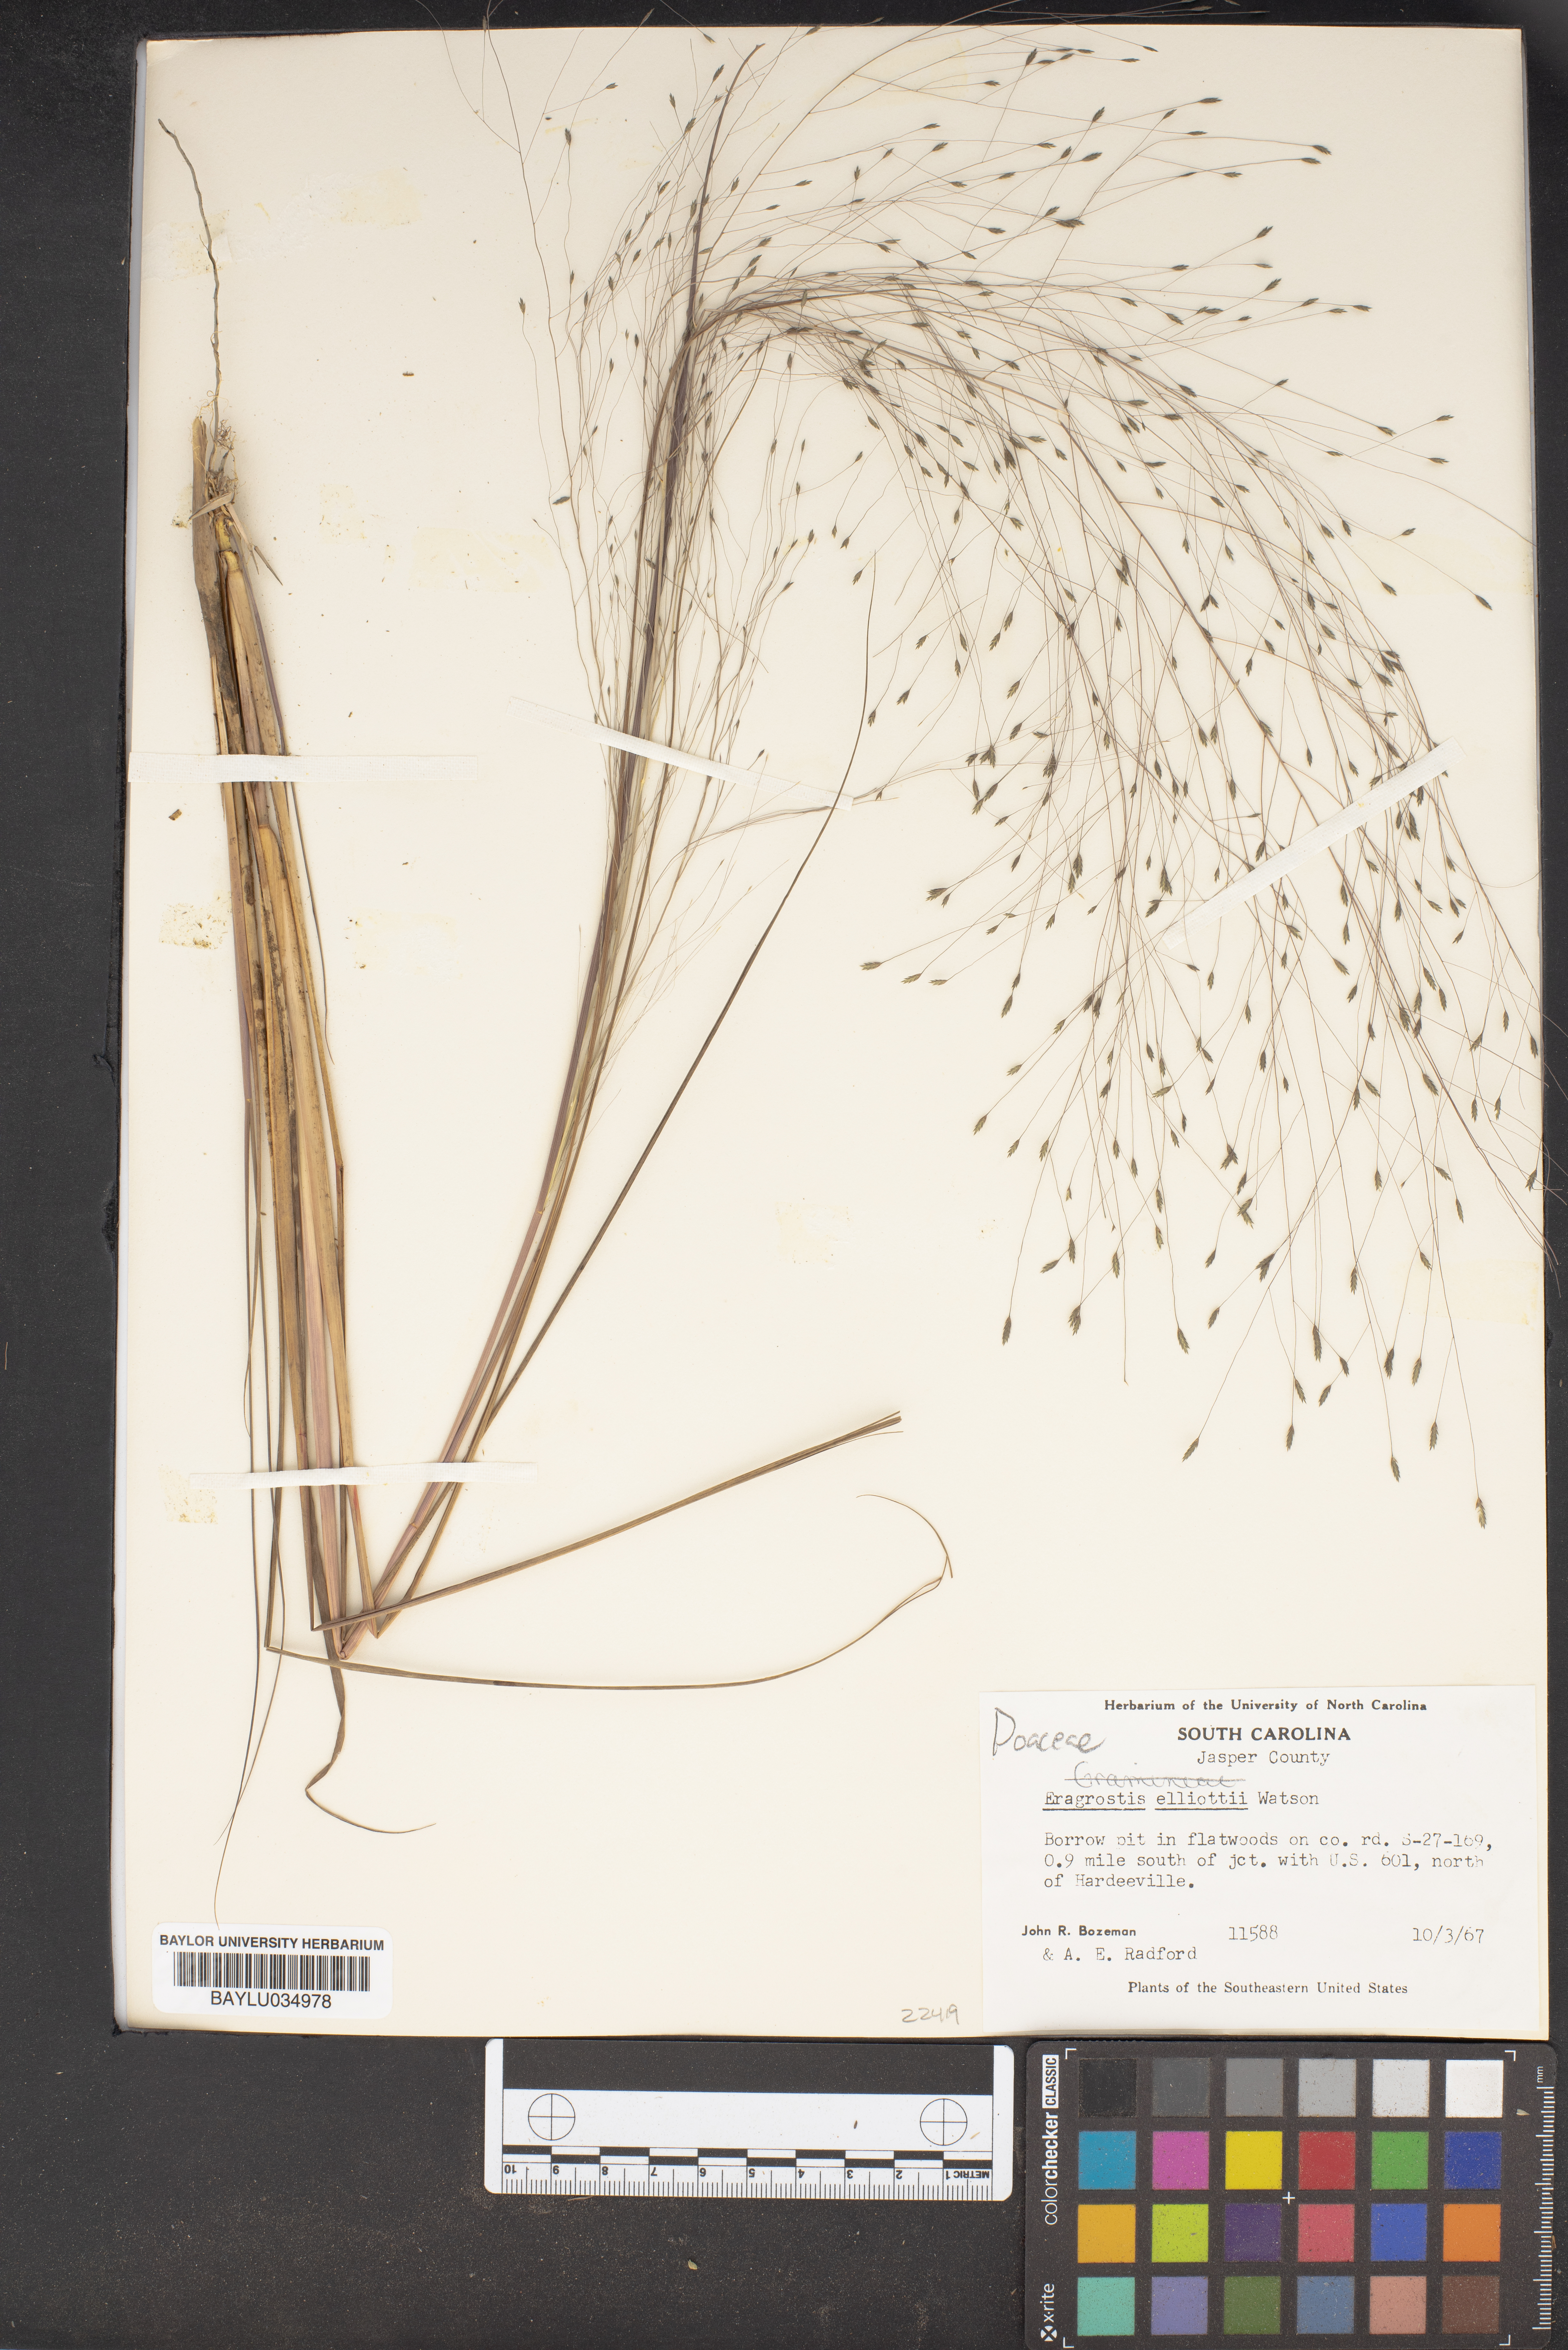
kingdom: Plantae
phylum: Tracheophyta
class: Liliopsida
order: Poales
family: Poaceae
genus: Eragrostis
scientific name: Eragrostis elliottii
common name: Elliott's love grass
